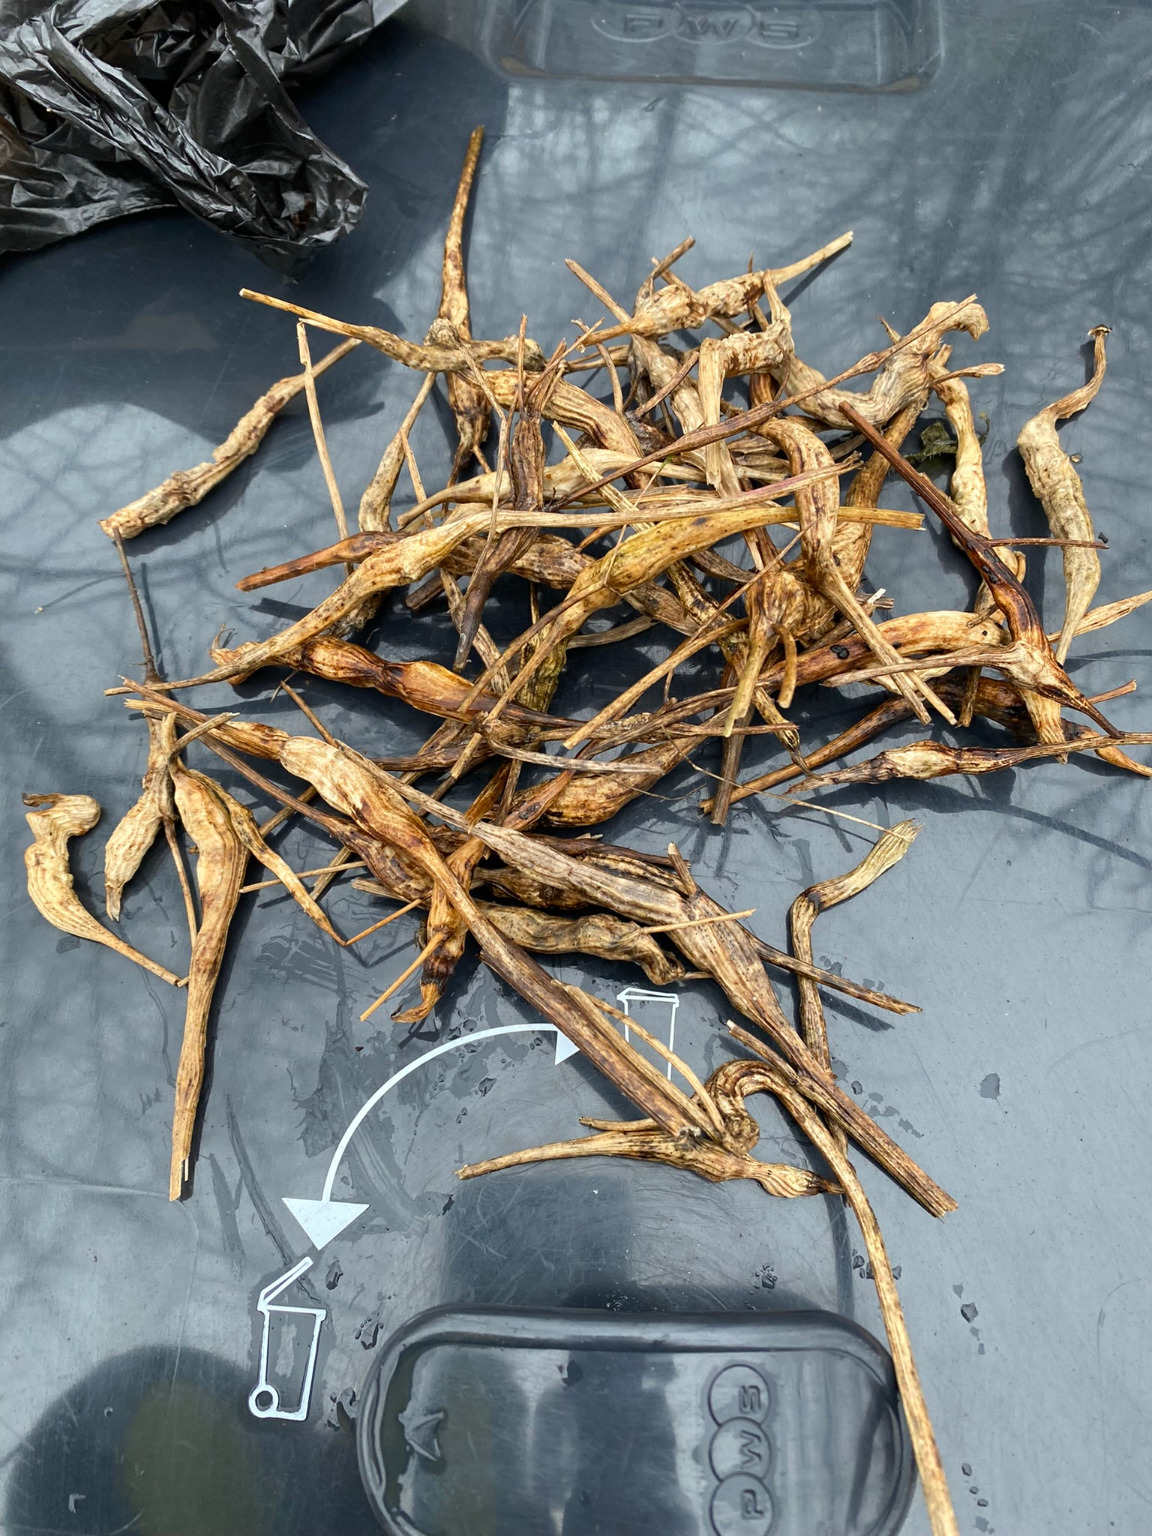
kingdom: Animalia
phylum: Arthropoda
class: Insecta
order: Hymenoptera
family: Cynipidae
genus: Phanacis
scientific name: Phanacis hypochoeridis
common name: Kongepengalhveps
